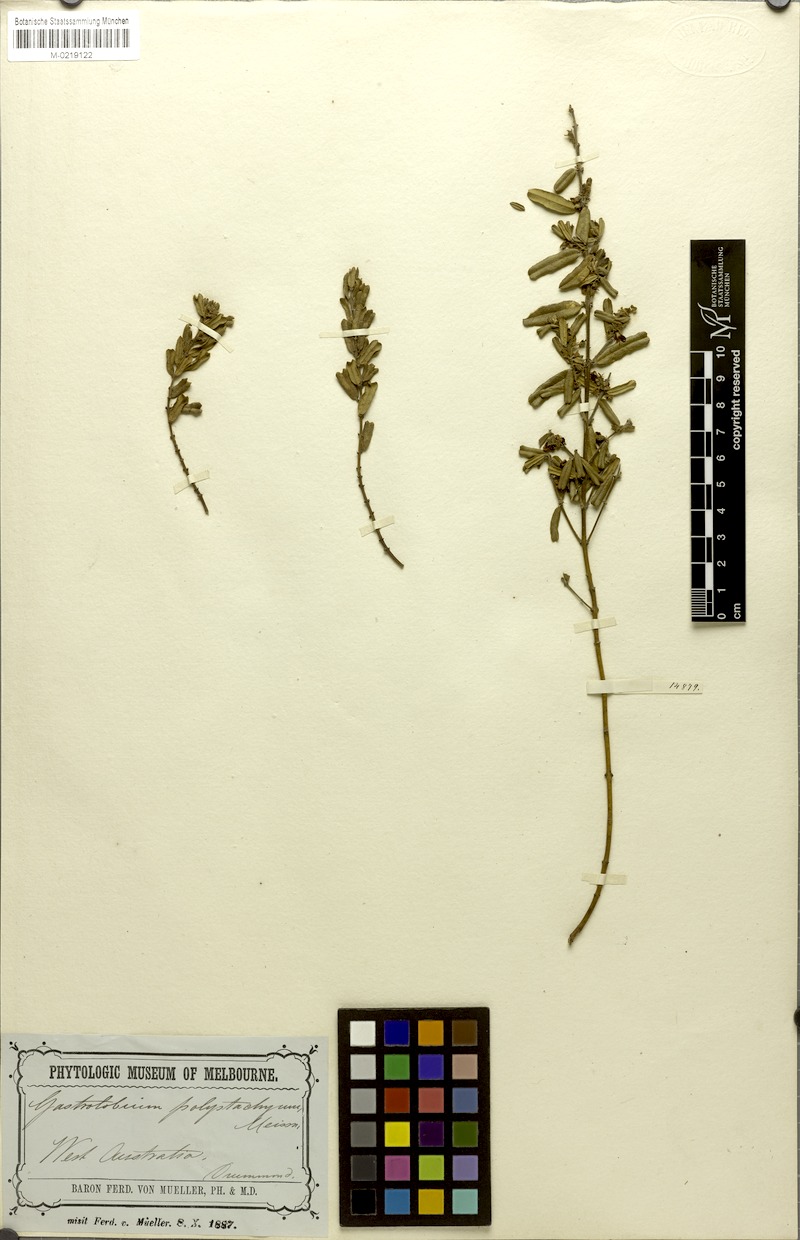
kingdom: Plantae
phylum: Tracheophyta
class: Magnoliopsida
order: Fabales
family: Fabaceae
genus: Gastrolobium
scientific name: Gastrolobium polystachyum
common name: Hill river poison
